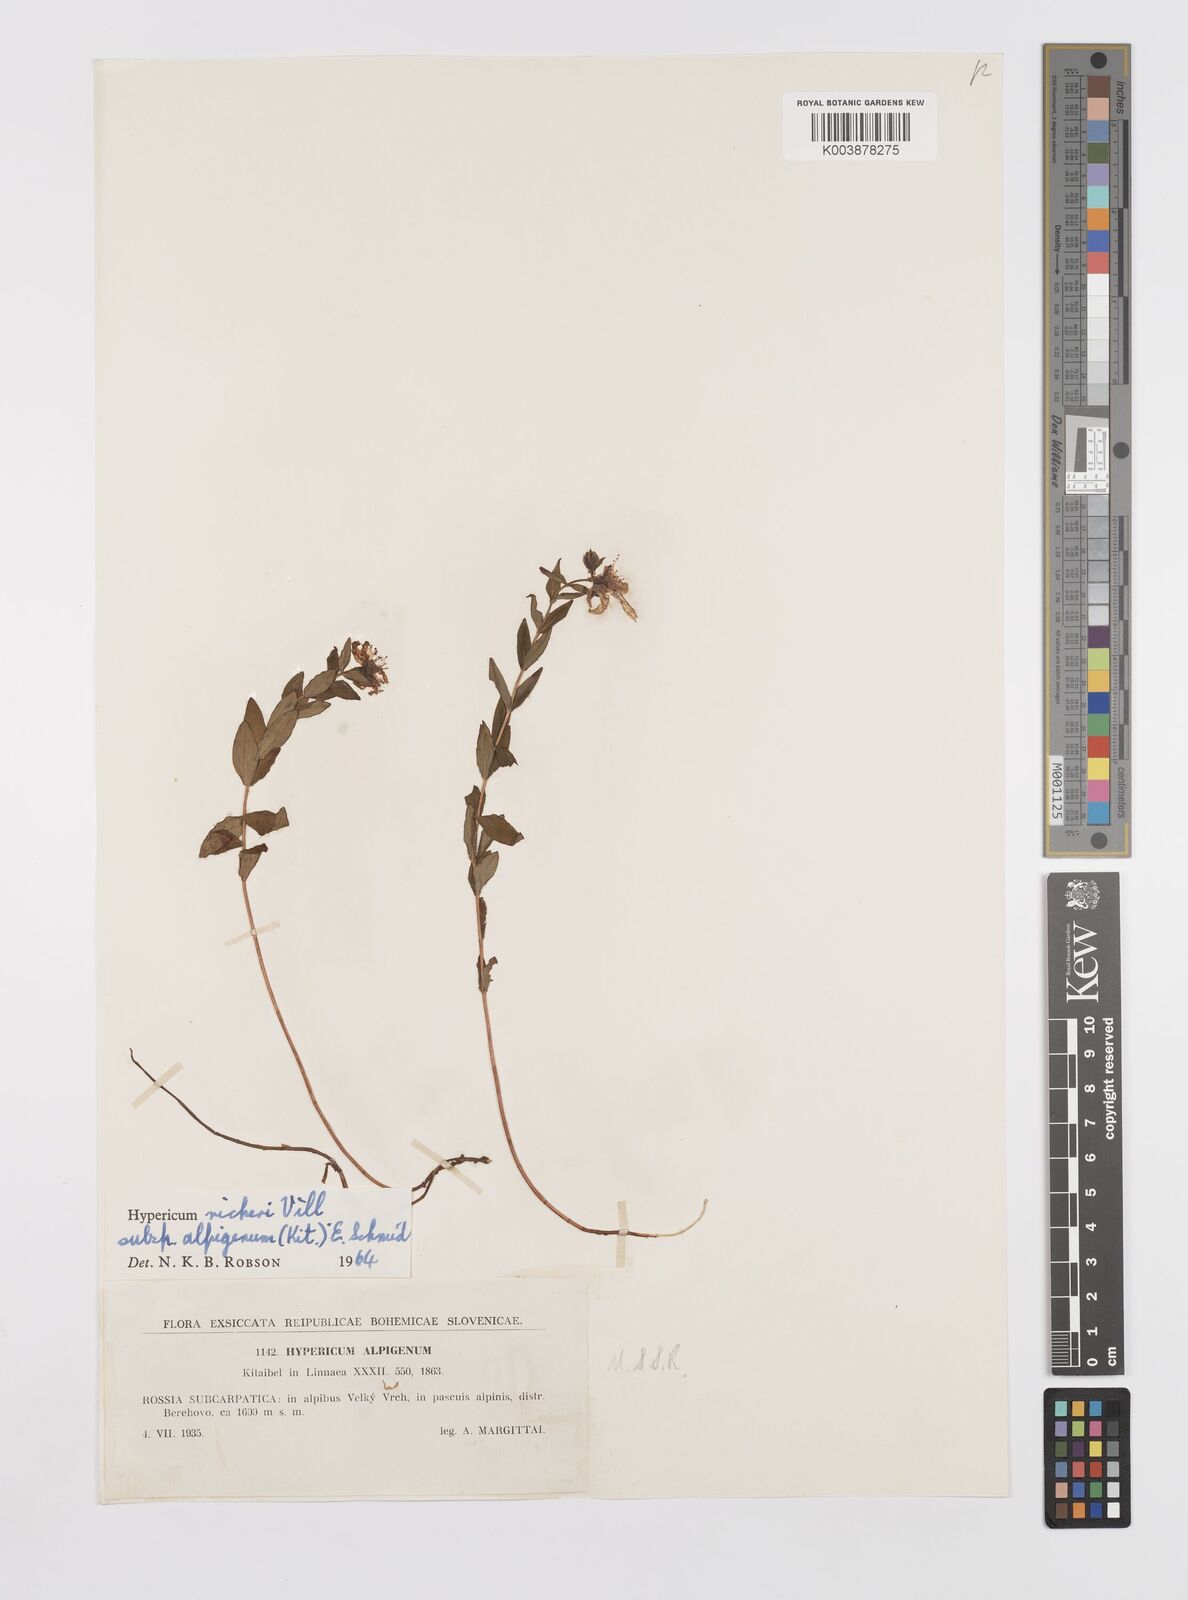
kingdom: Plantae
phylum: Tracheophyta
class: Magnoliopsida
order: Malpighiales
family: Hypericaceae
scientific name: Hypericaceae
